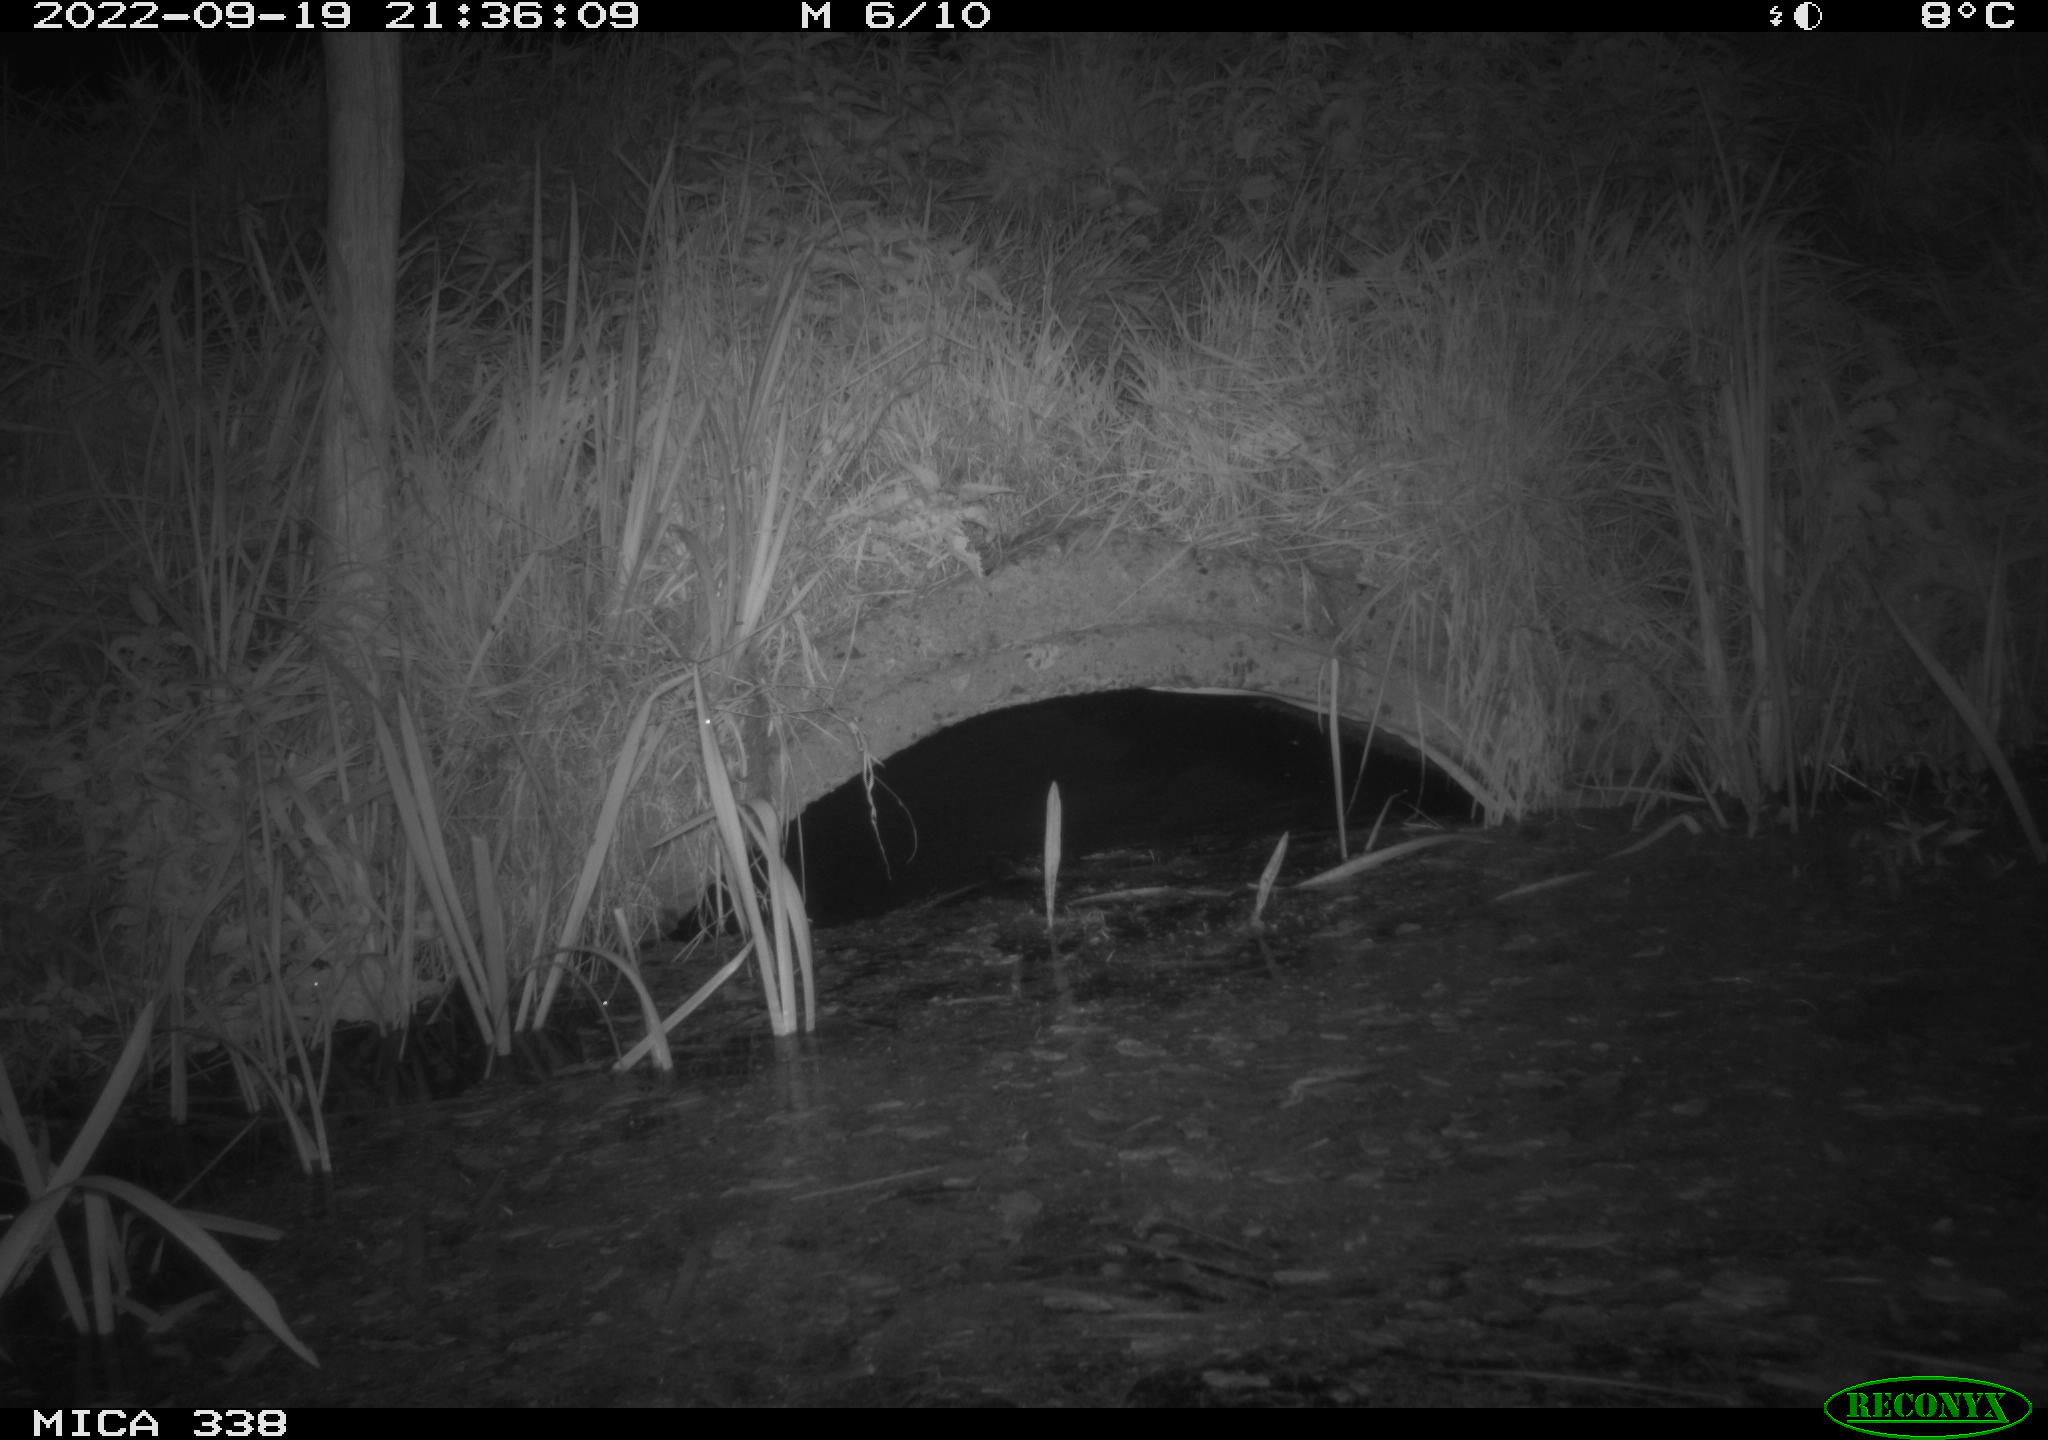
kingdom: Animalia
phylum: Chordata
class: Mammalia
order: Rodentia
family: Muridae
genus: Rattus
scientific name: Rattus norvegicus
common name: Brown rat
